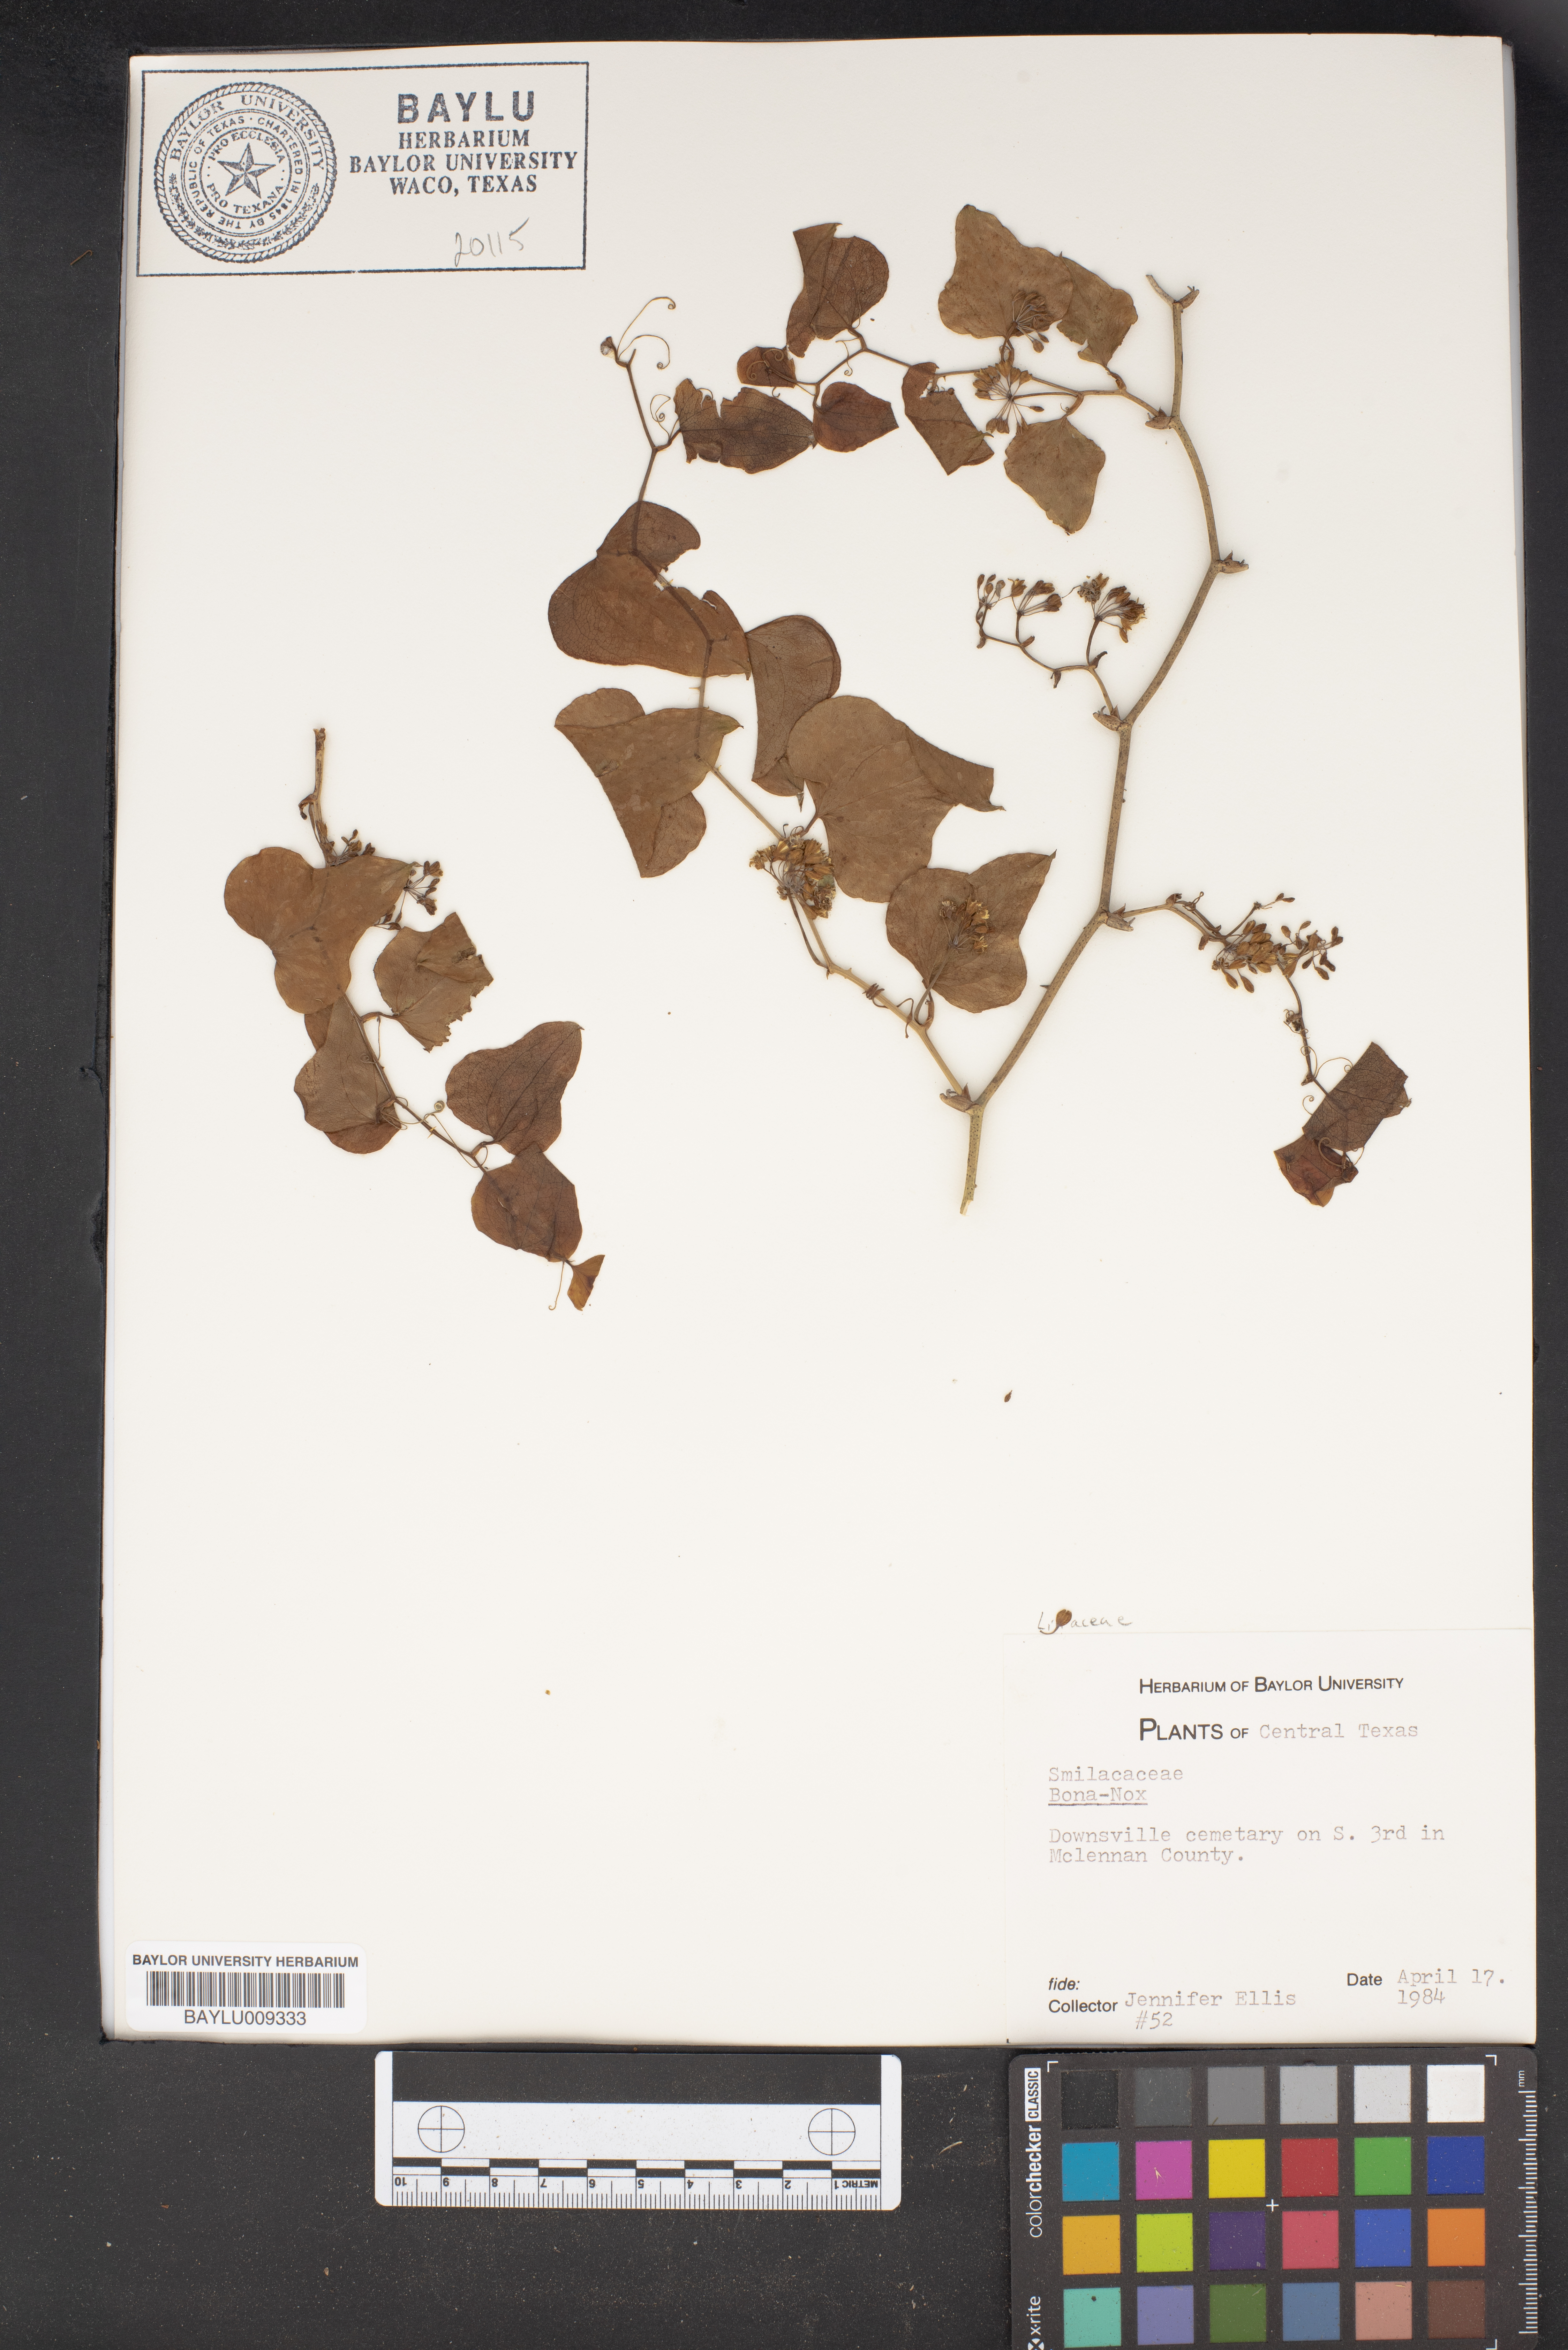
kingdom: Plantae
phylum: Tracheophyta
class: Liliopsida
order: Liliales
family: Smilacaceae
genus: Smilax
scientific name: Smilax bona-nox
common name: Catbrier
